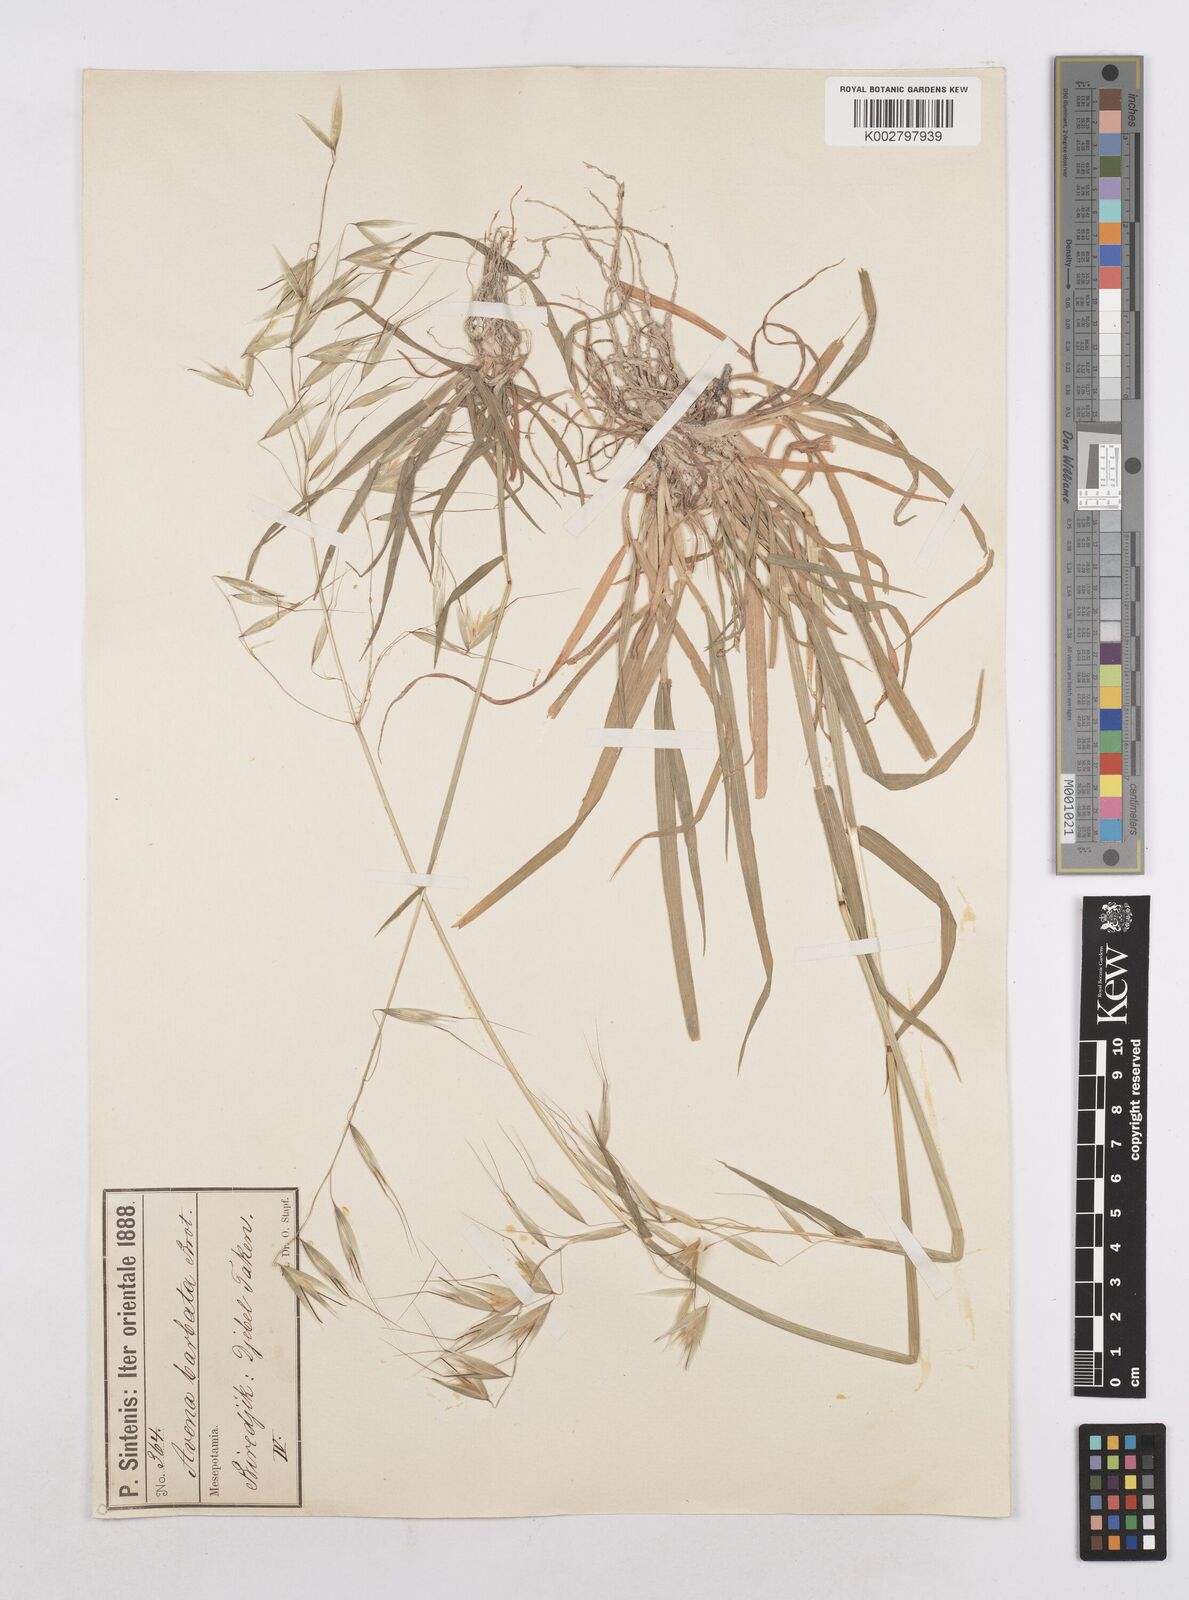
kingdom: Plantae
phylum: Tracheophyta
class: Liliopsida
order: Poales
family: Poaceae
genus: Avena
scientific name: Avena
